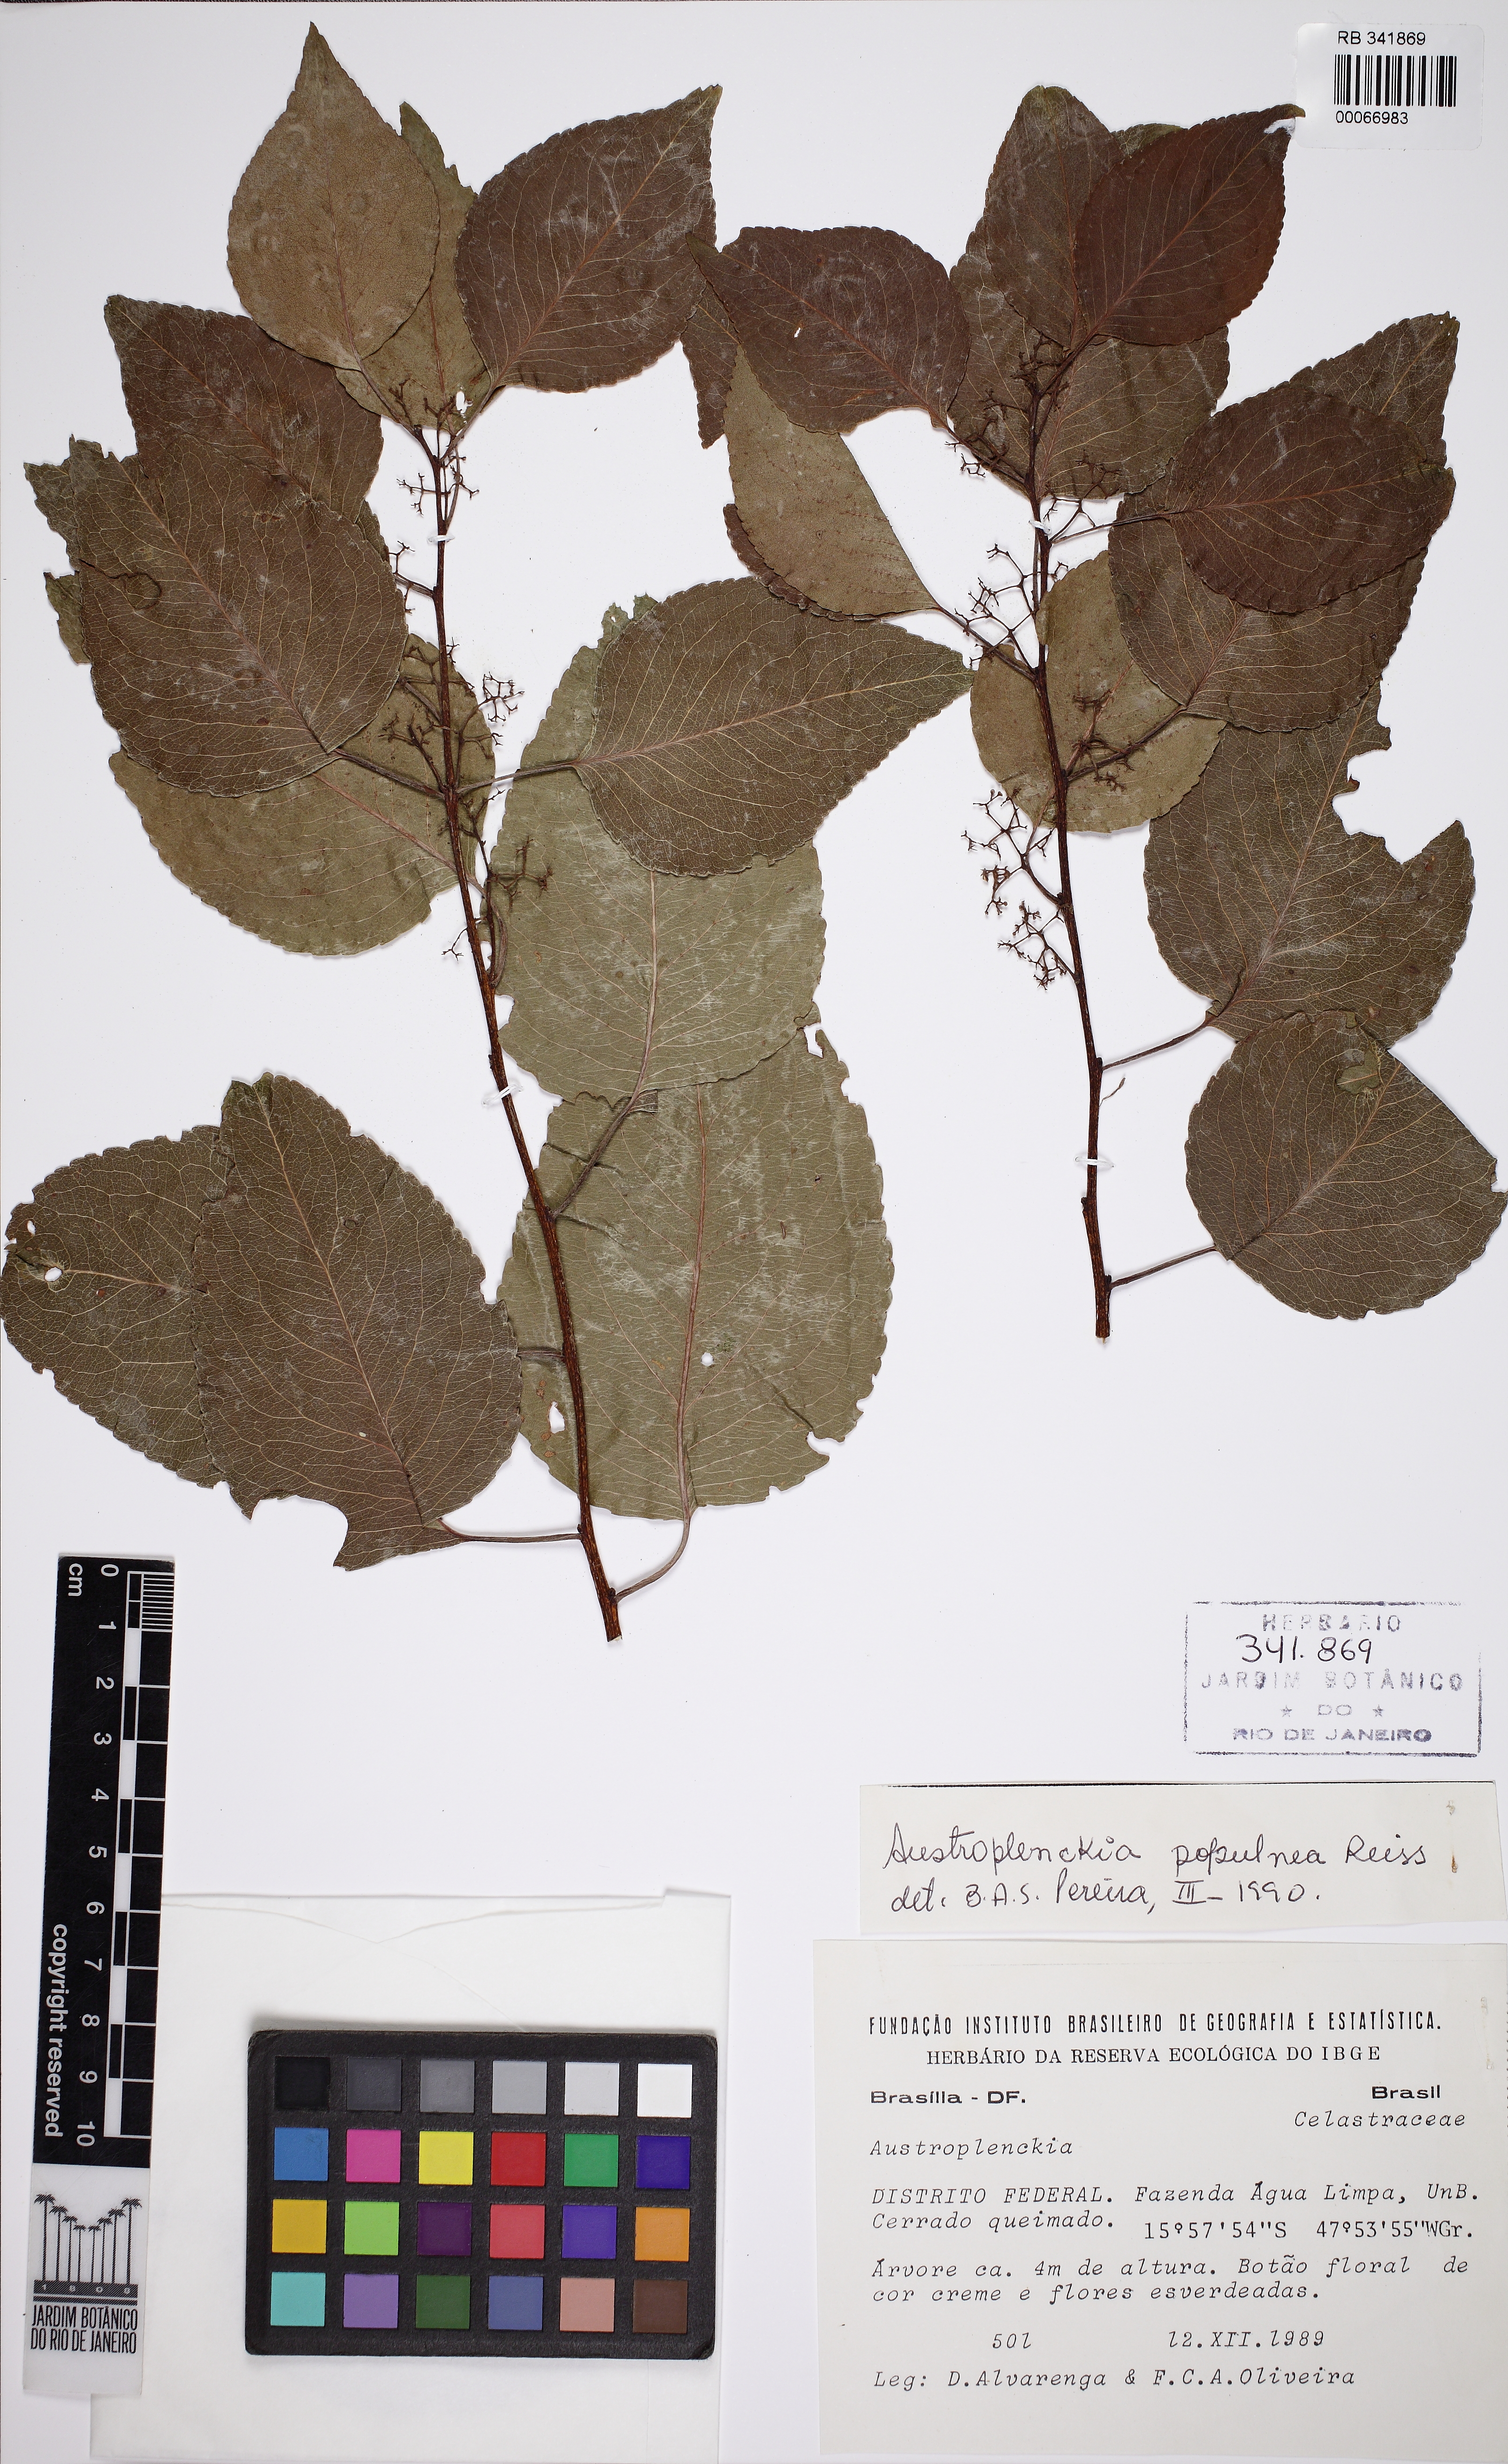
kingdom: Plantae
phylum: Tracheophyta
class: Magnoliopsida
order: Celastrales
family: Celastraceae
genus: Plenckia
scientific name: Plenckia populnea
